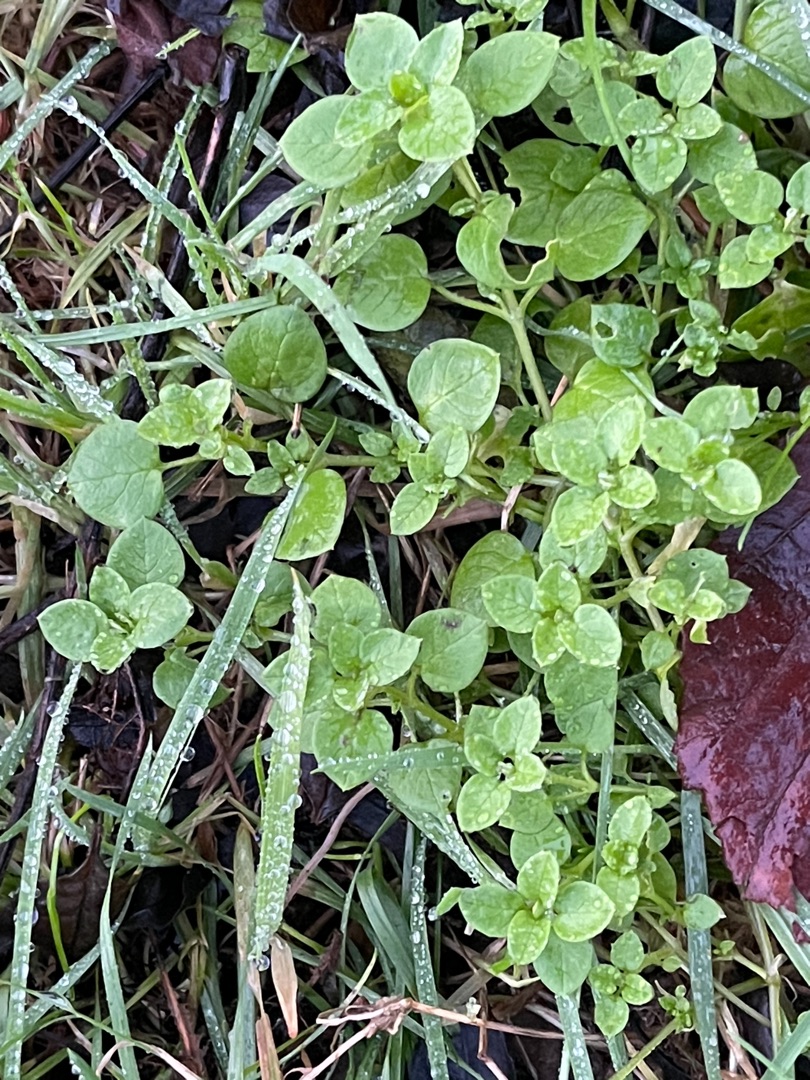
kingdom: Plantae
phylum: Tracheophyta
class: Magnoliopsida
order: Caryophyllales
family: Caryophyllaceae
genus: Stellaria
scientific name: Stellaria media
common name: Almindelig fuglegræs
